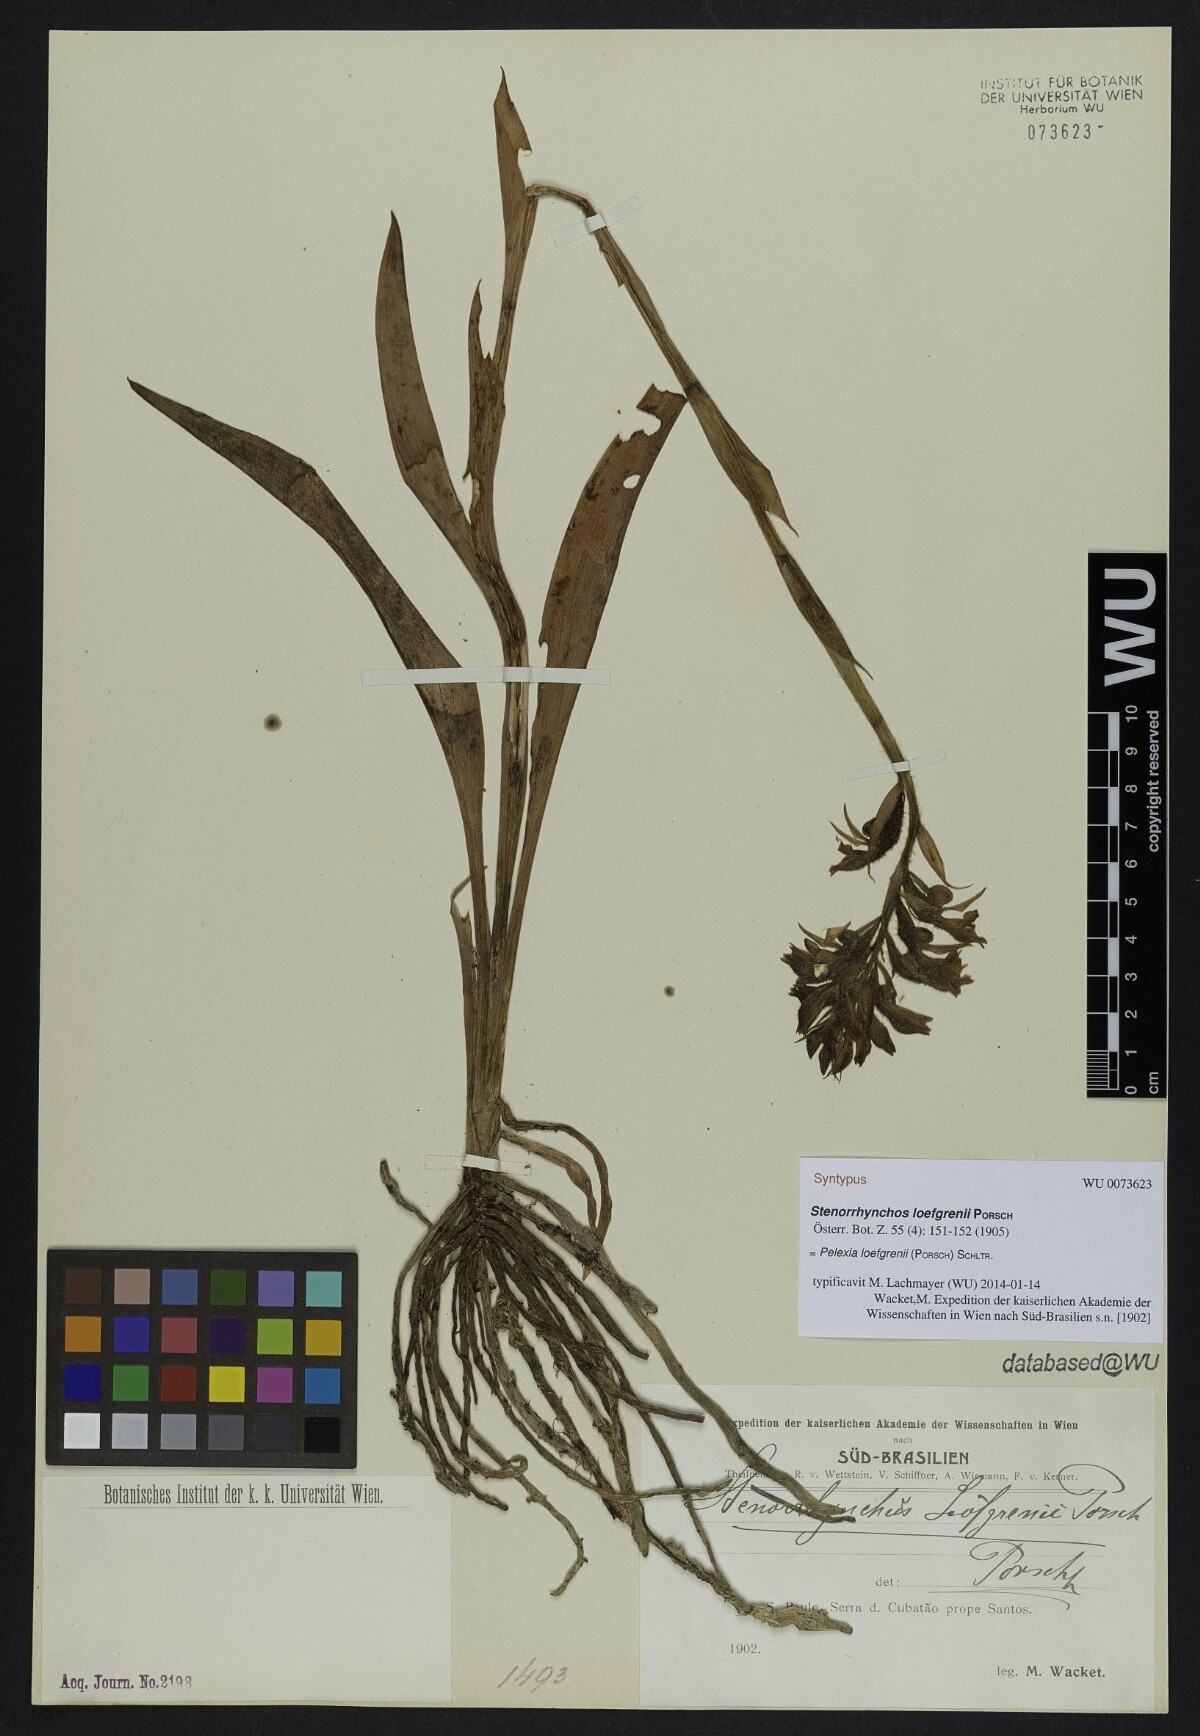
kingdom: Plantae
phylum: Tracheophyta
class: Liliopsida
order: Asparagales
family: Orchidaceae
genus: Pelexia
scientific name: Pelexia loefgrenii
